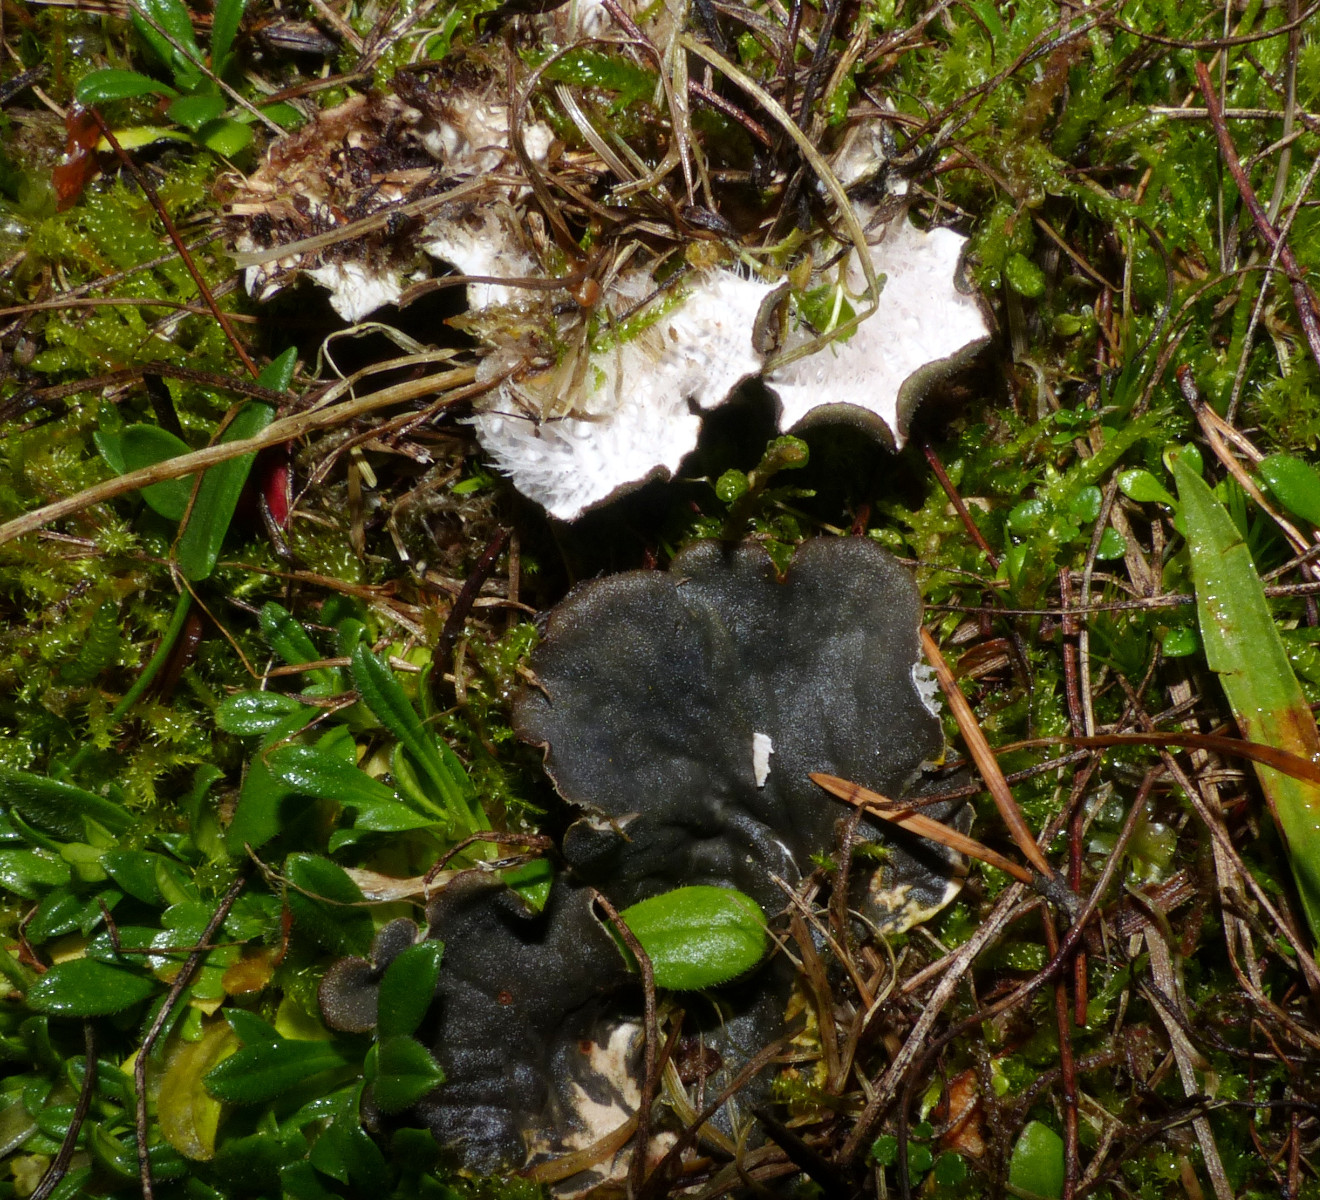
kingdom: Fungi
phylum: Ascomycota
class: Lecanoromycetes
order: Peltigerales
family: Peltigeraceae
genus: Peltigera
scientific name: Peltigera membranacea
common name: tynd skjoldlav
